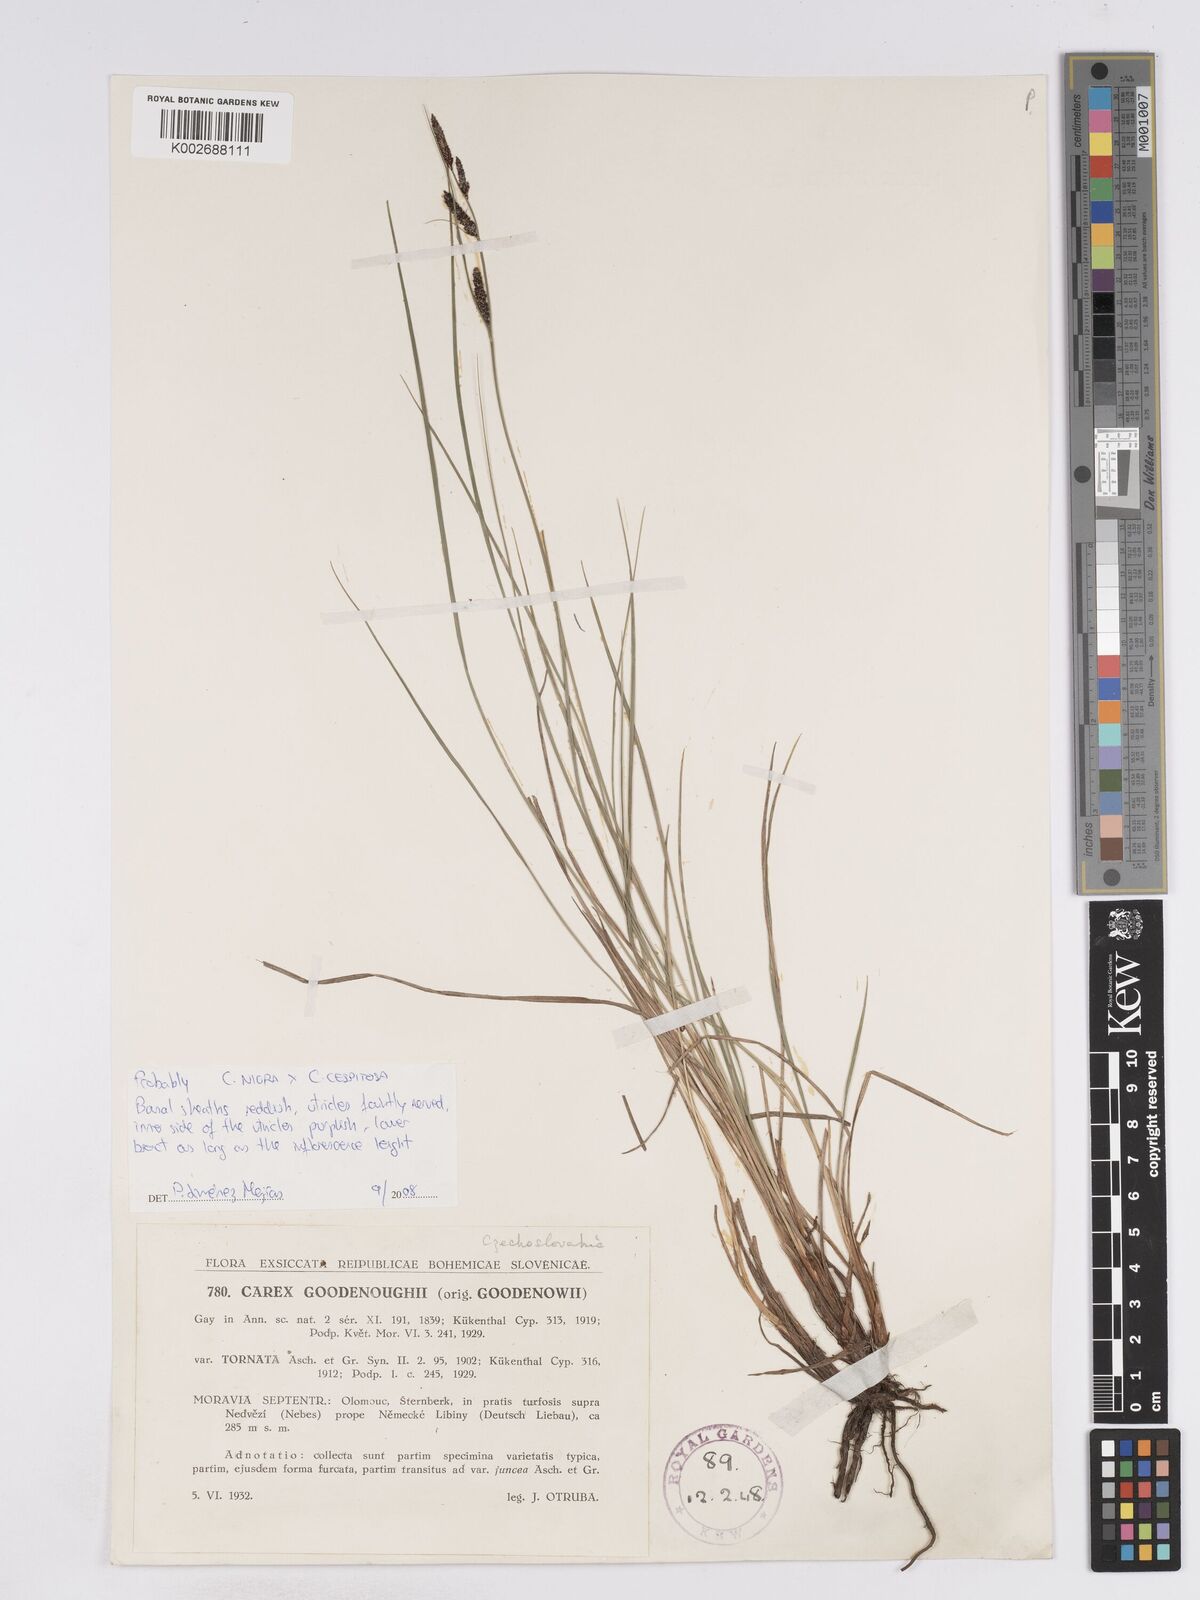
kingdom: Plantae
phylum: Tracheophyta
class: Liliopsida
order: Poales
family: Cyperaceae
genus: Carex
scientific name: Carex
